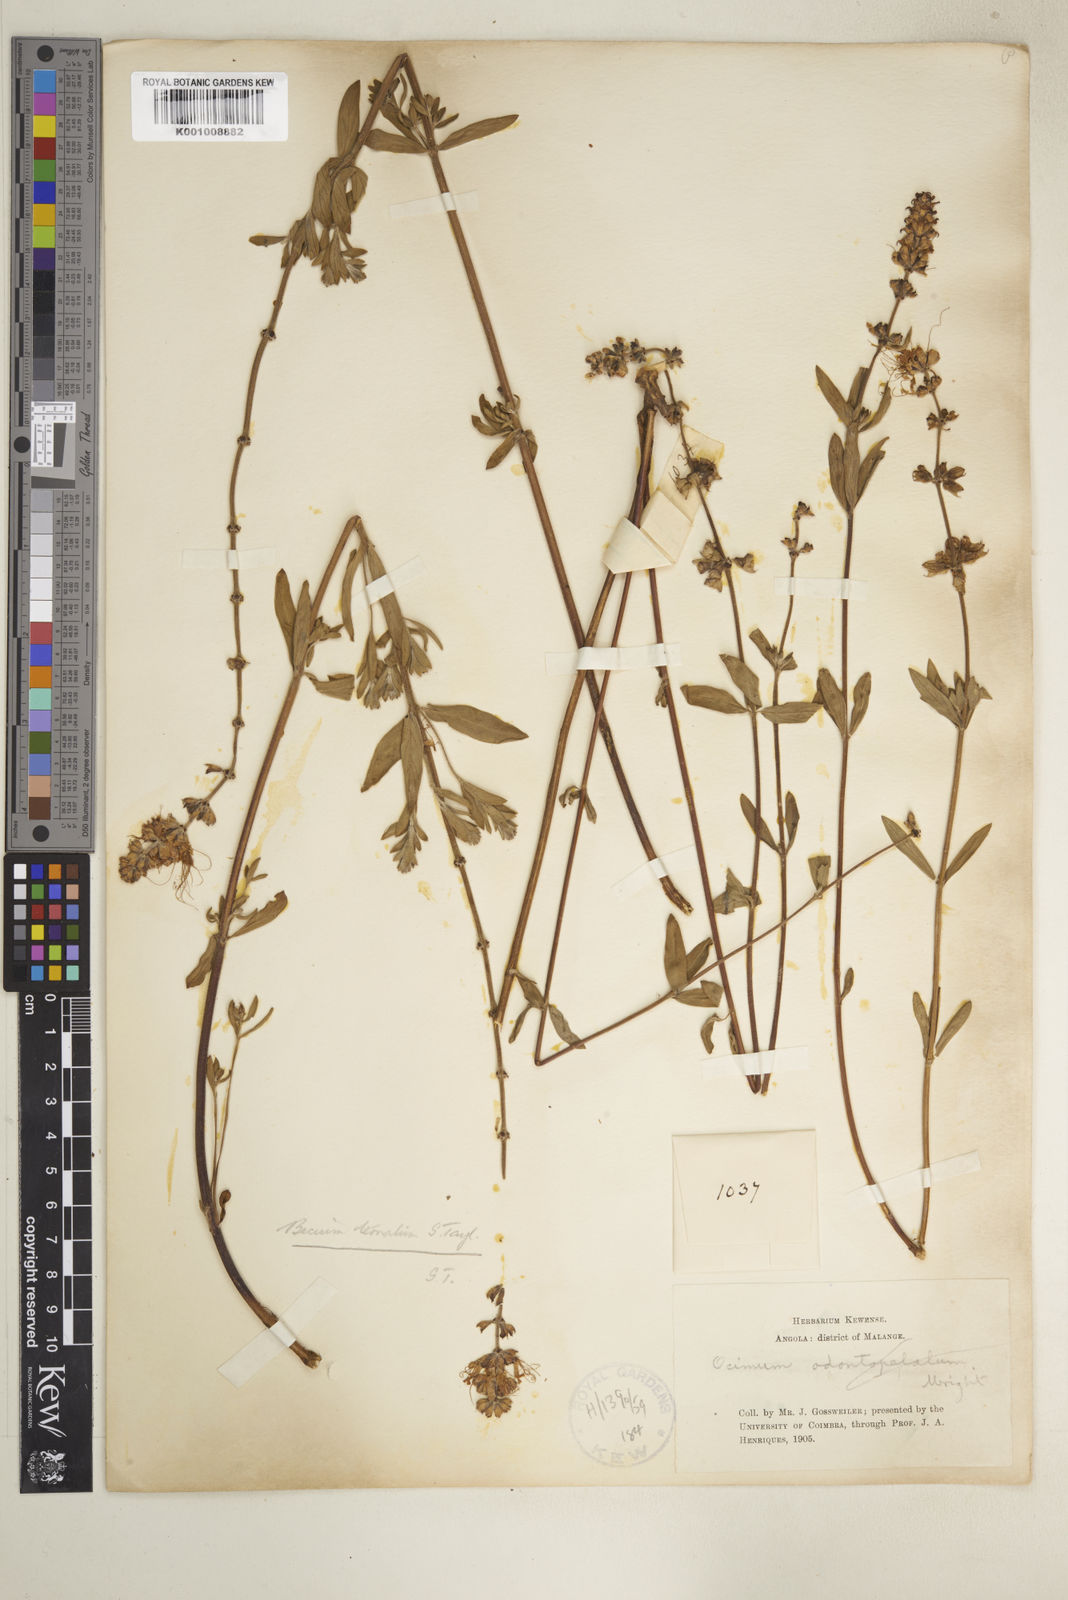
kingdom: Plantae
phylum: Tracheophyta
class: Magnoliopsida
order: Lamiales
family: Lamiaceae
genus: Ocimum
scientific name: Ocimum obovatum
